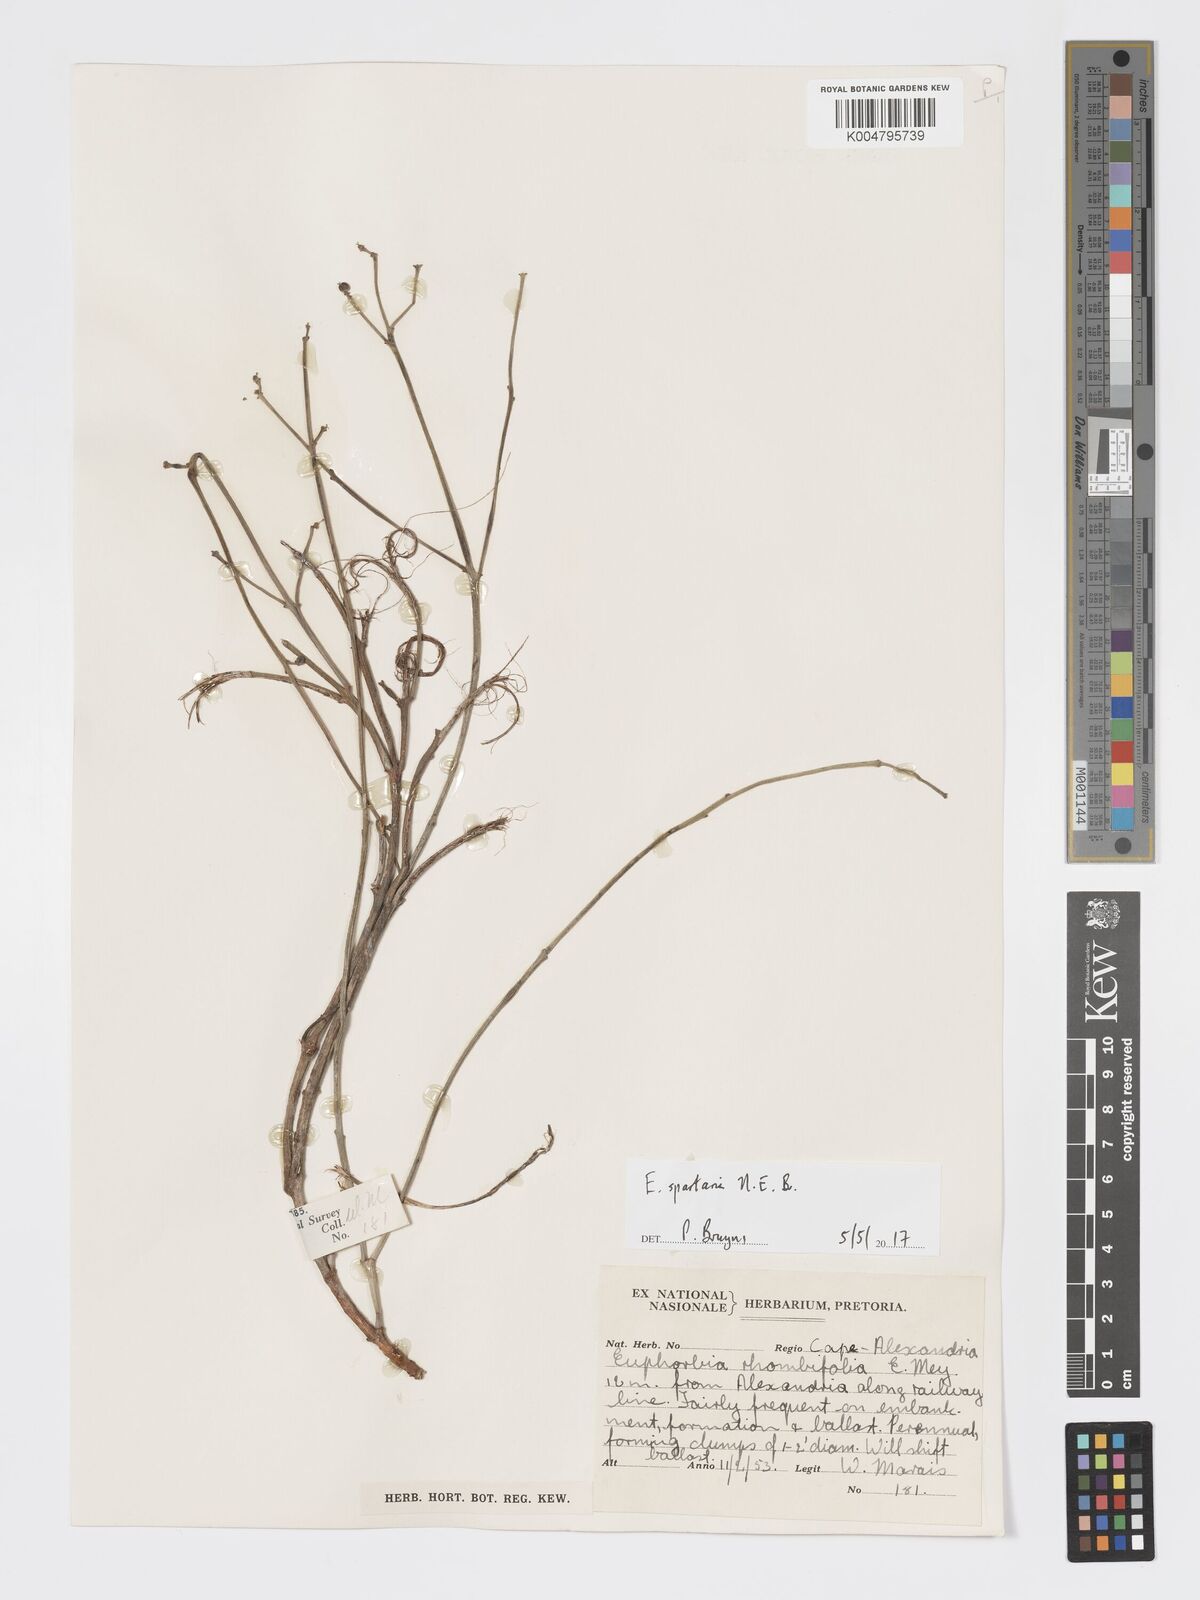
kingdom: Plantae
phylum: Tracheophyta
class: Magnoliopsida
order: Malpighiales
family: Euphorbiaceae
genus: Euphorbia
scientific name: Euphorbia spartaria
